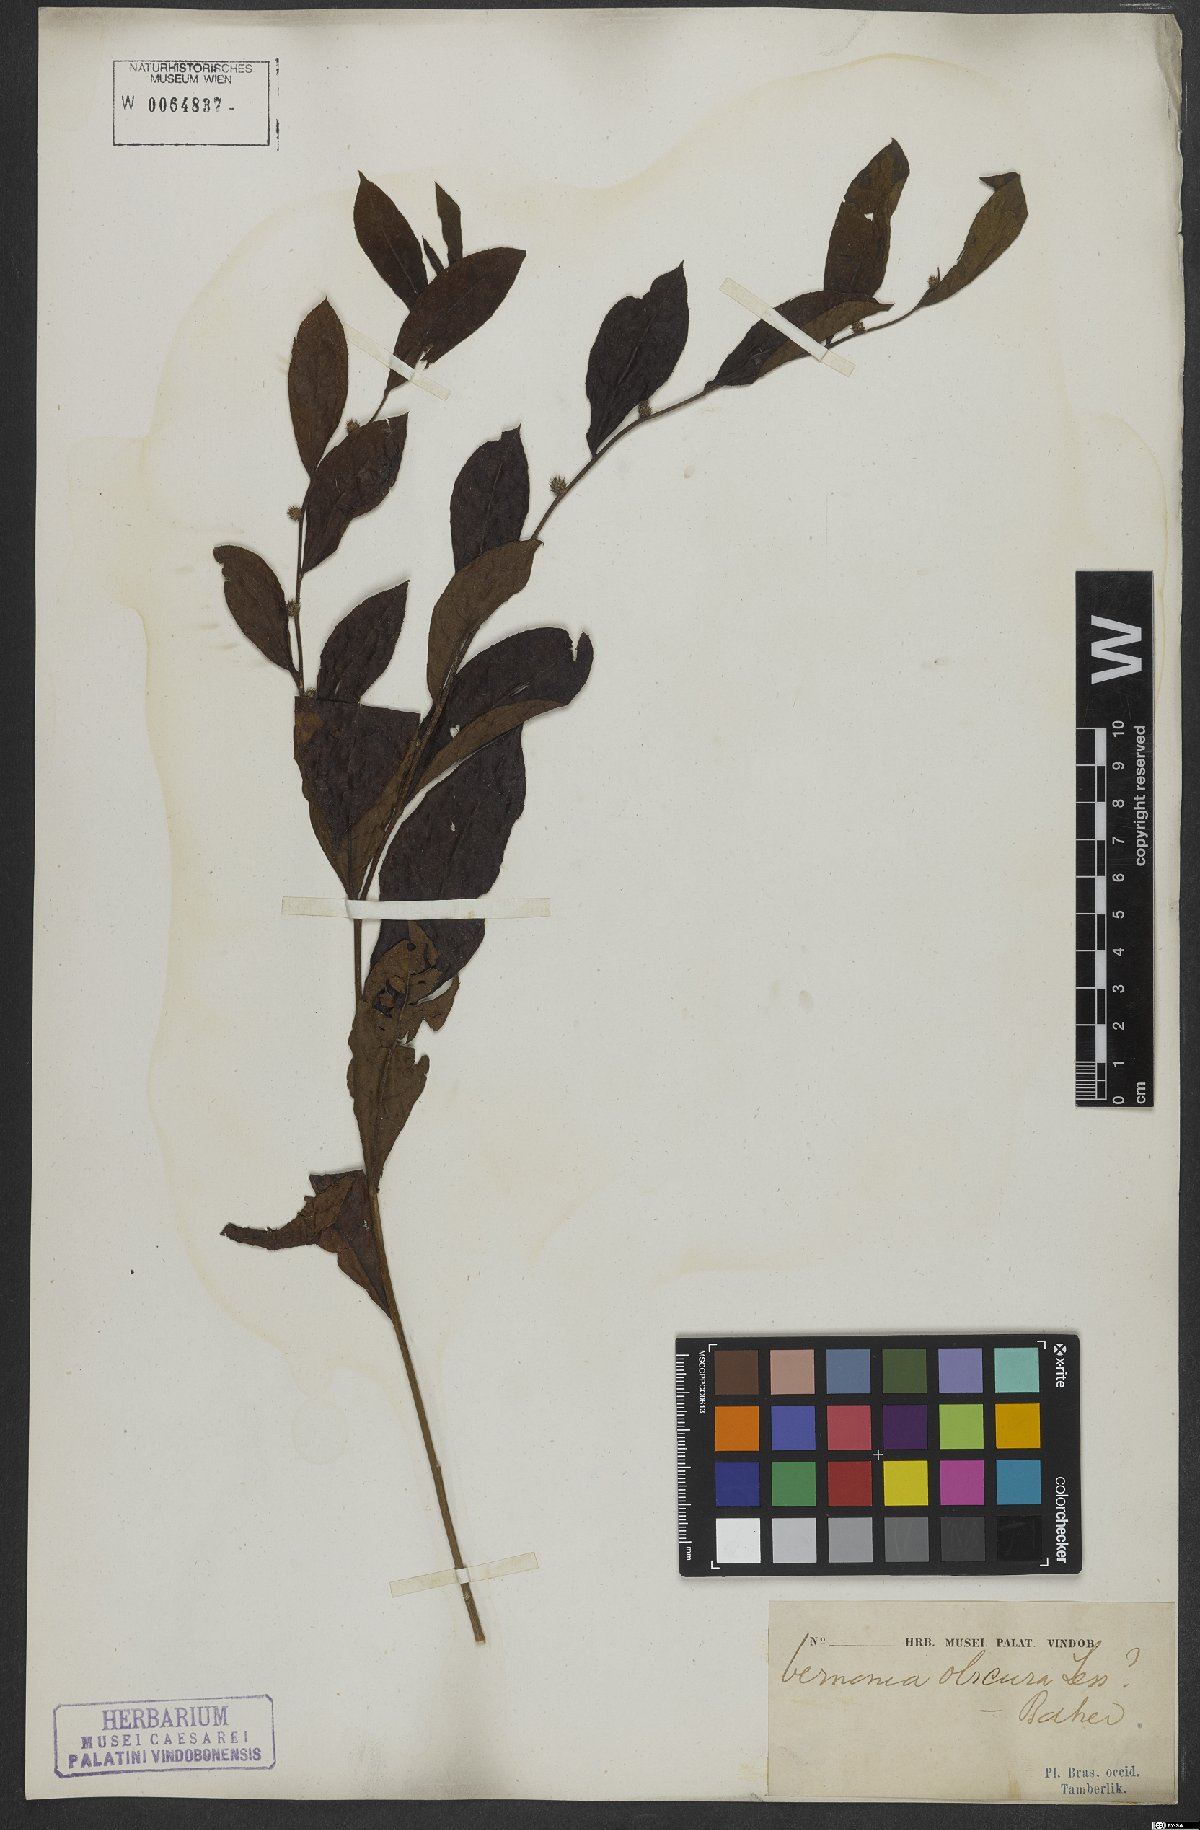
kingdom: Plantae
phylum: Tracheophyta
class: Magnoliopsida
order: Asterales
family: Asteraceae
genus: Lessingianthus
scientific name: Lessingianthus obscurus
